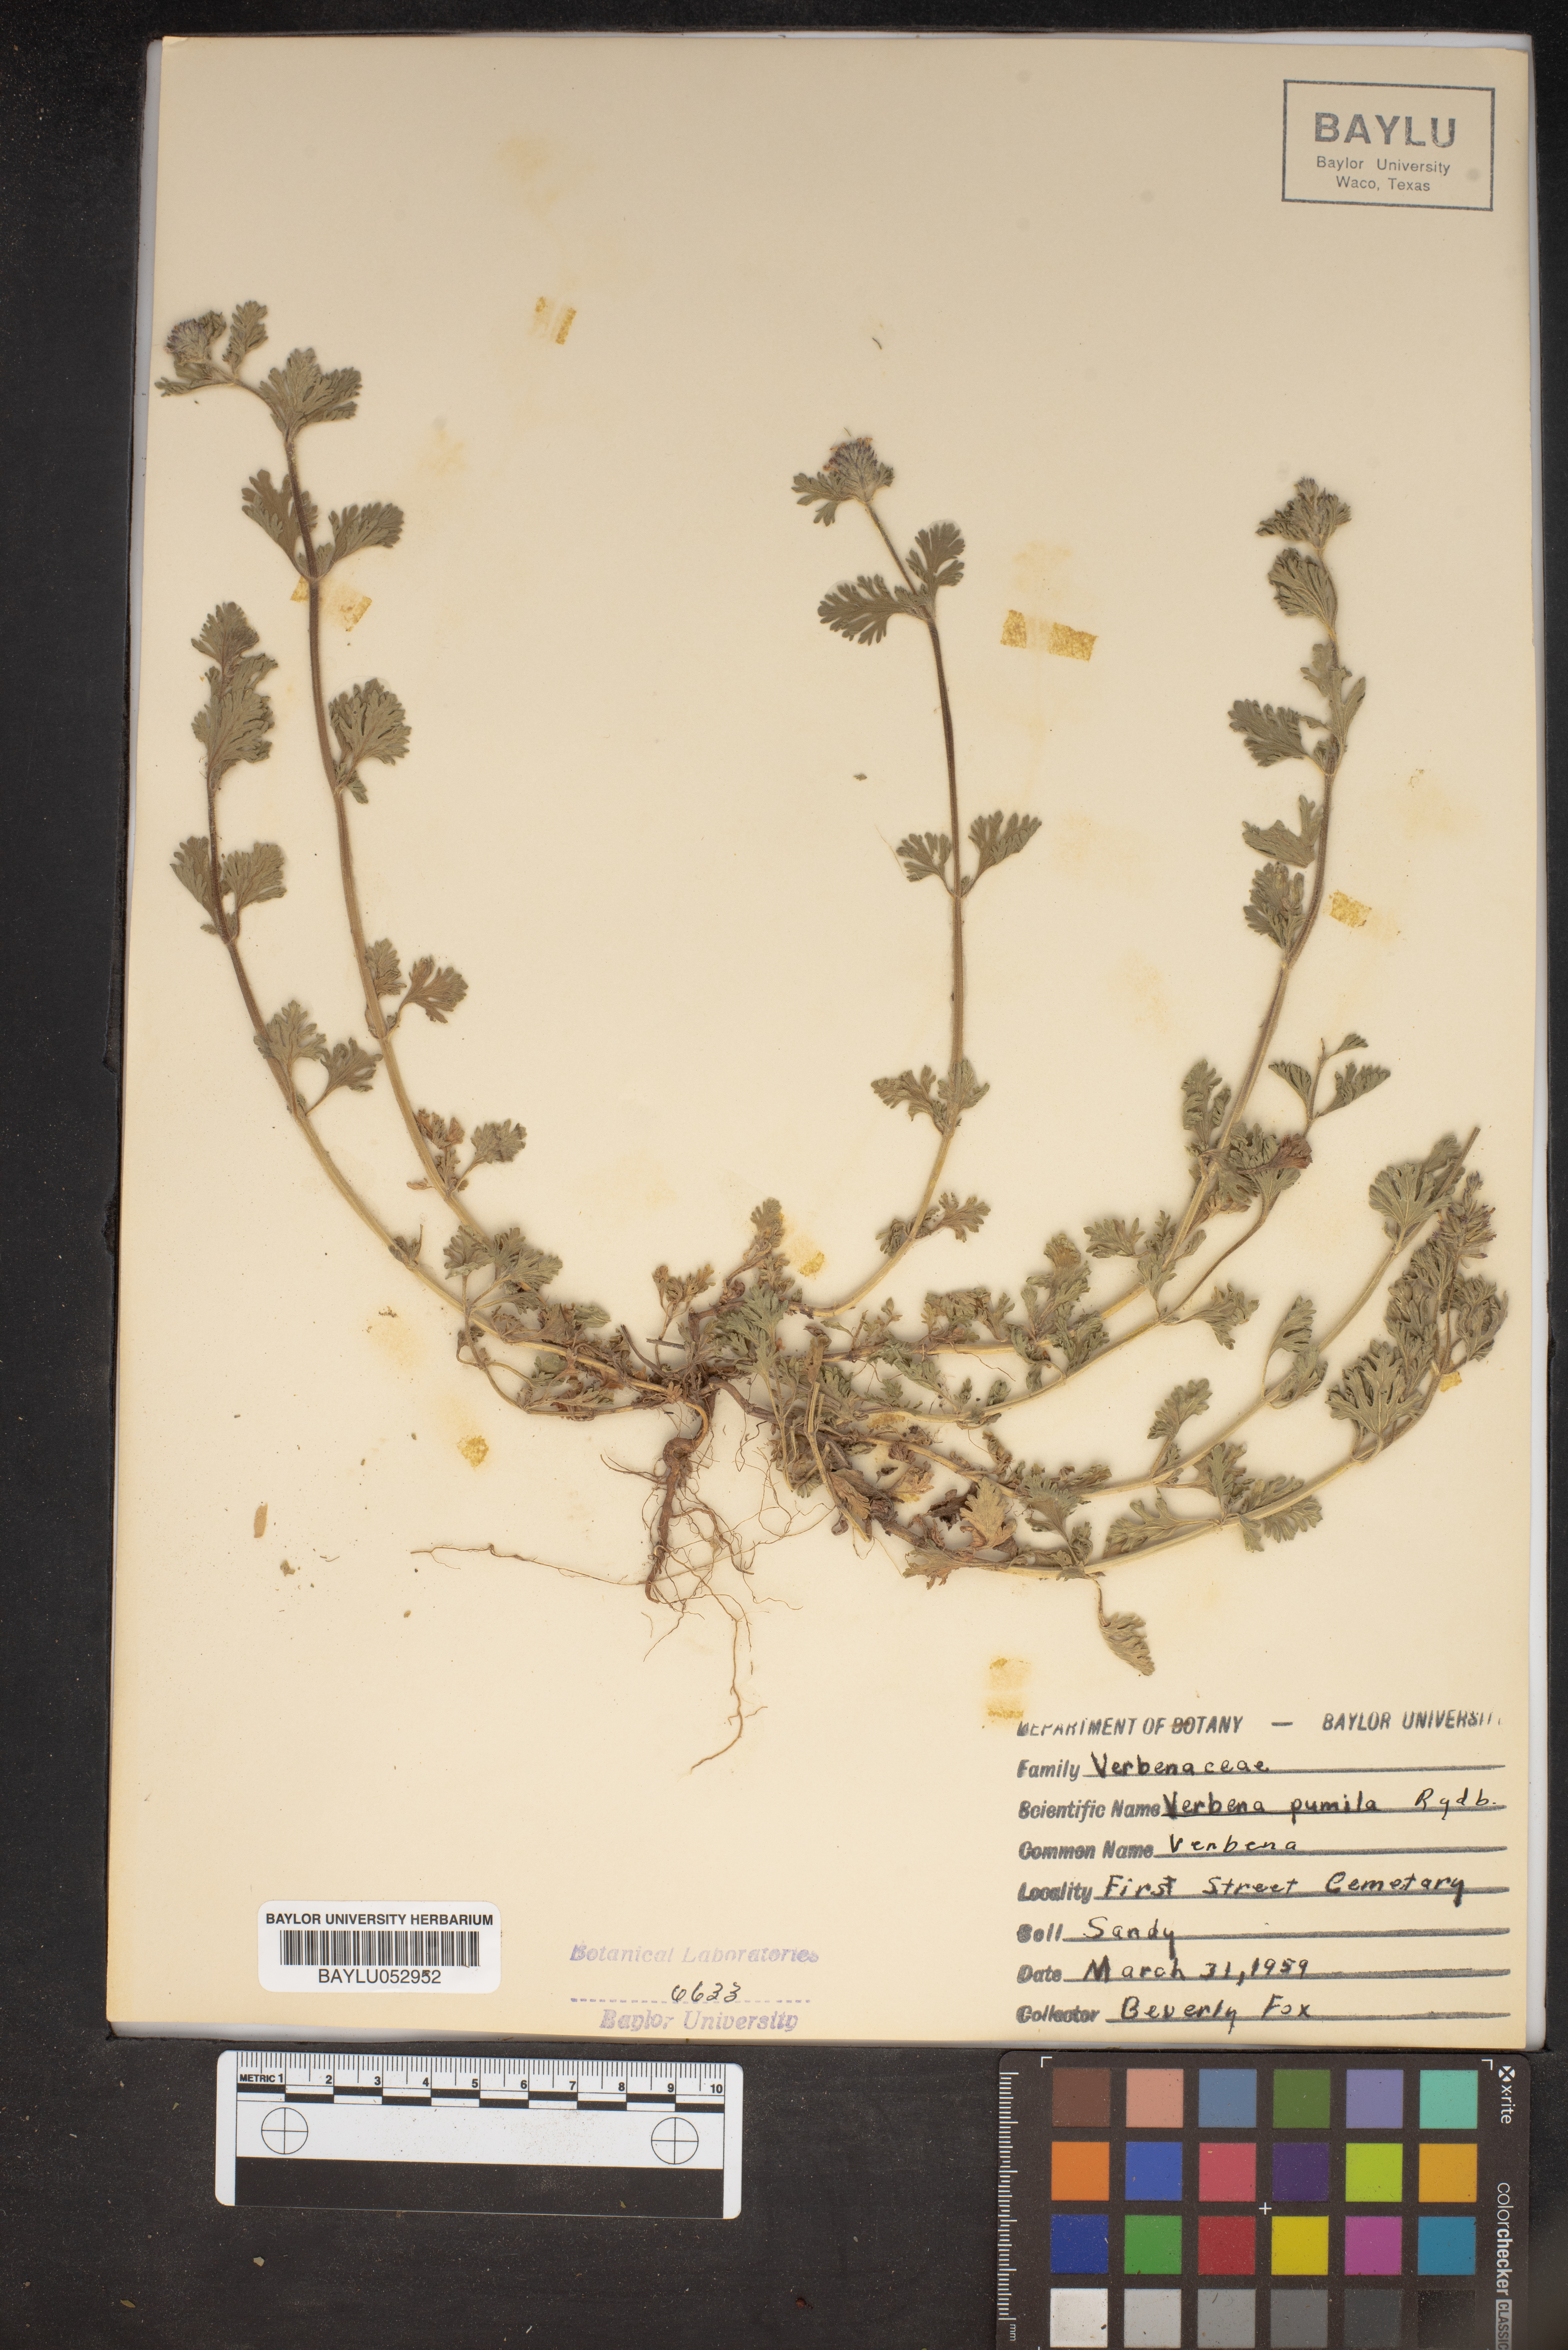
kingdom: Plantae
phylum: Tracheophyta
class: Magnoliopsida
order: Lamiales
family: Verbenaceae
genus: Verbena
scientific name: Verbena pumila
